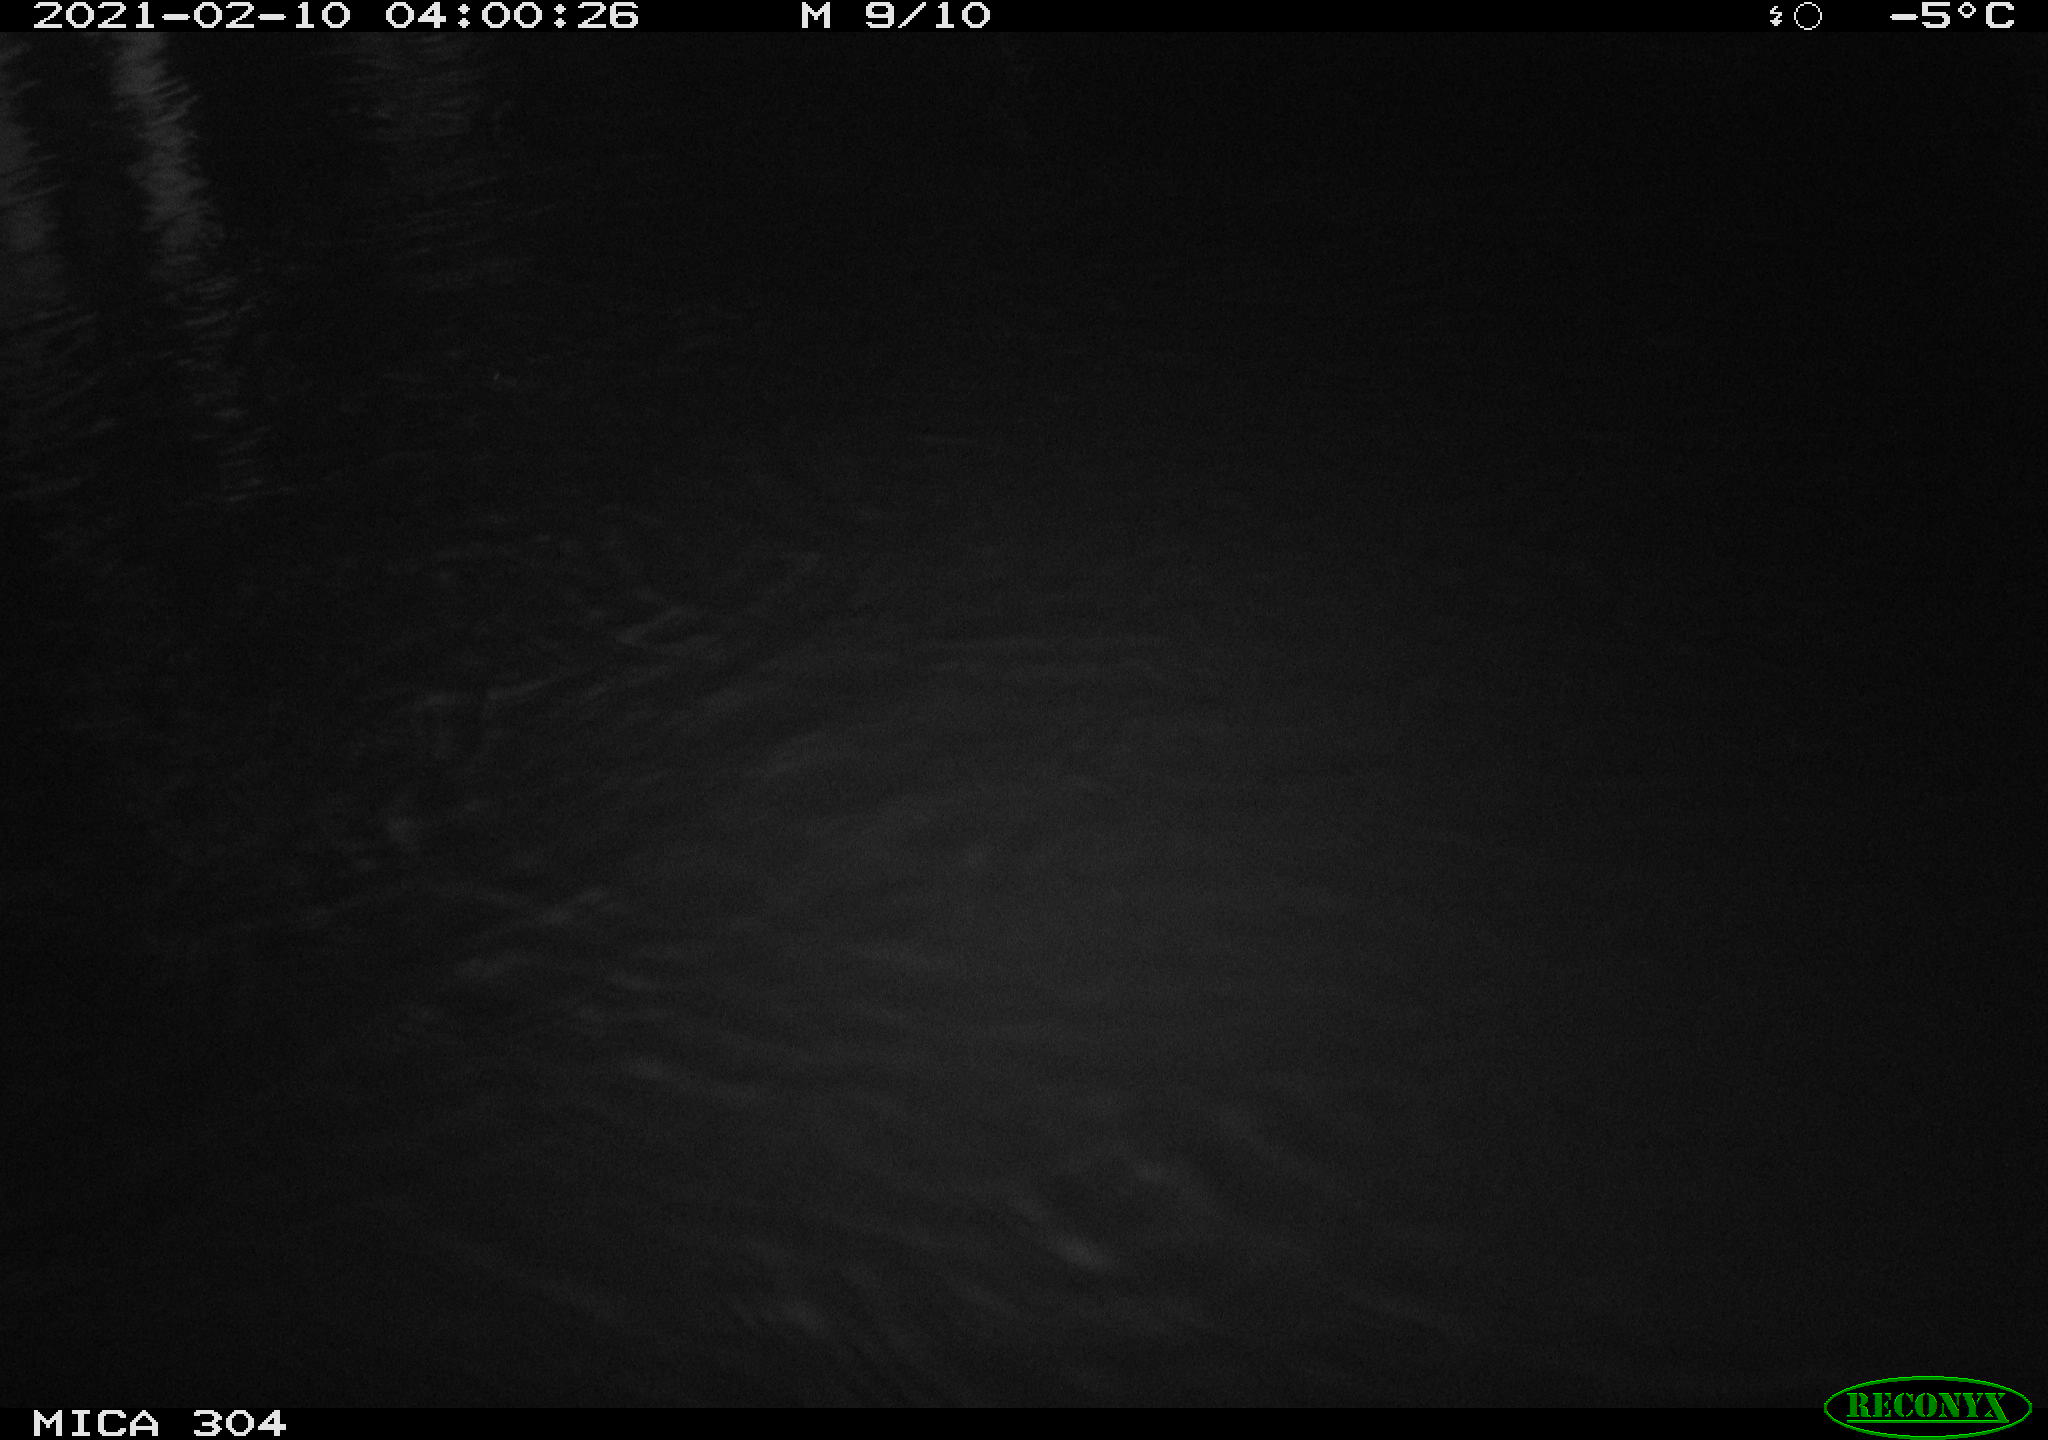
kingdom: Animalia
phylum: Chordata
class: Mammalia
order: Rodentia
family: Muridae
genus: Rattus
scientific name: Rattus norvegicus
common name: Brown rat
